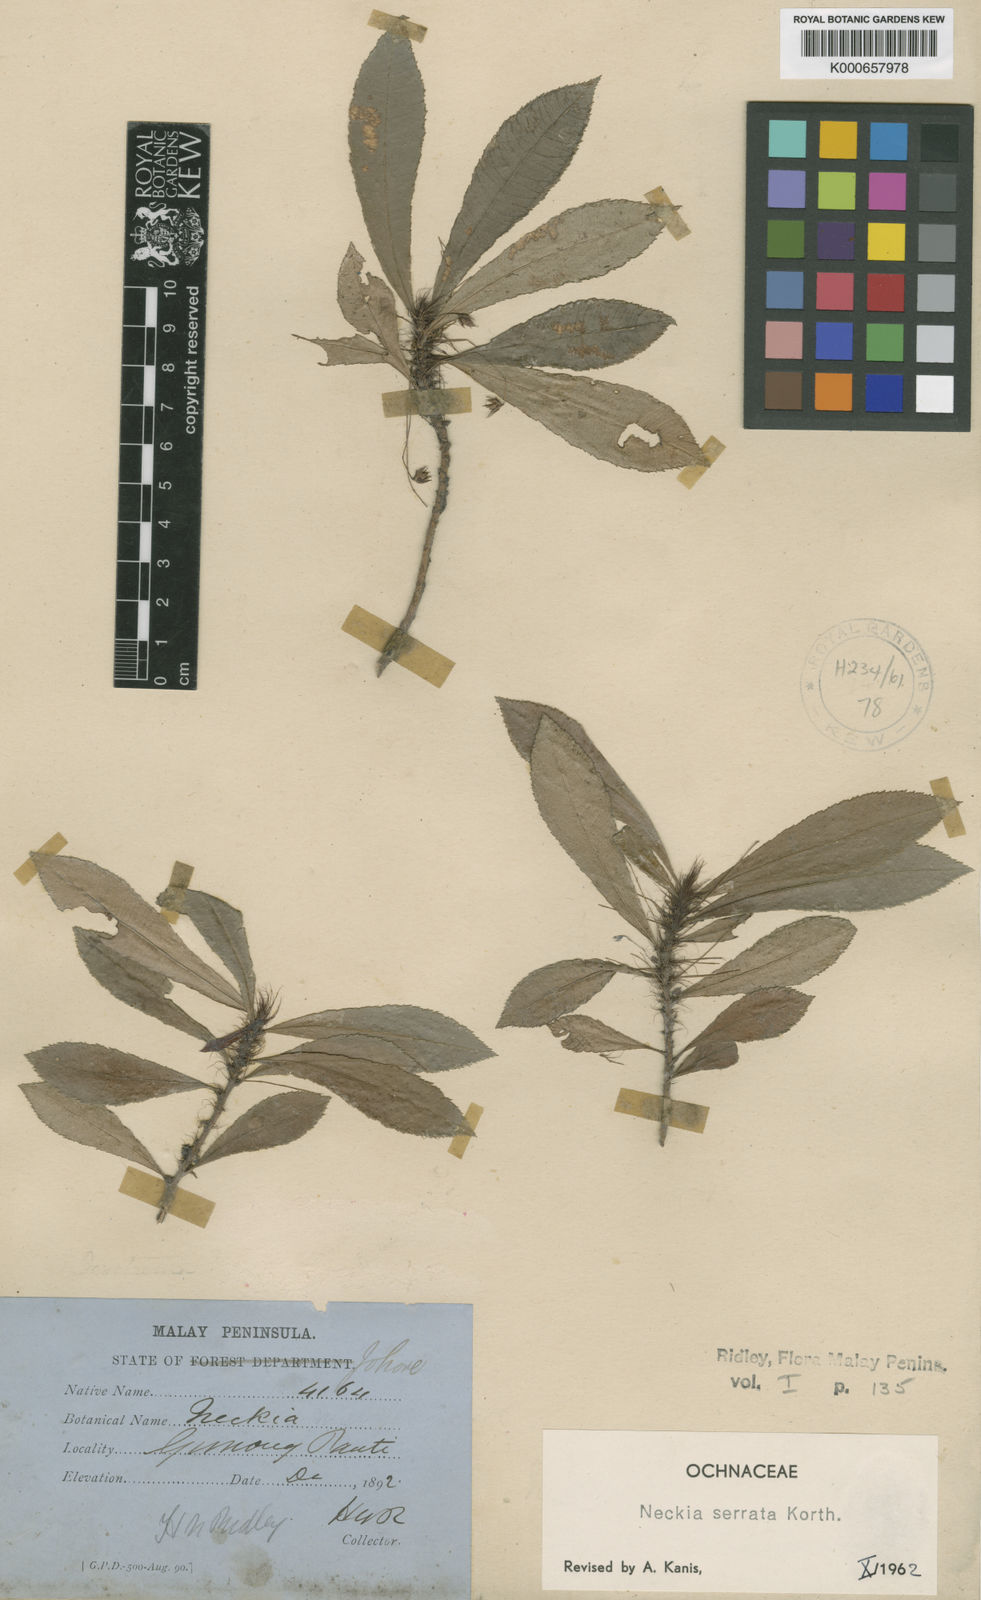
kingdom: Plantae
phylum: Tracheophyta
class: Magnoliopsida
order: Malpighiales
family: Ochnaceae
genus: Neckia
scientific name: Neckia serrata
